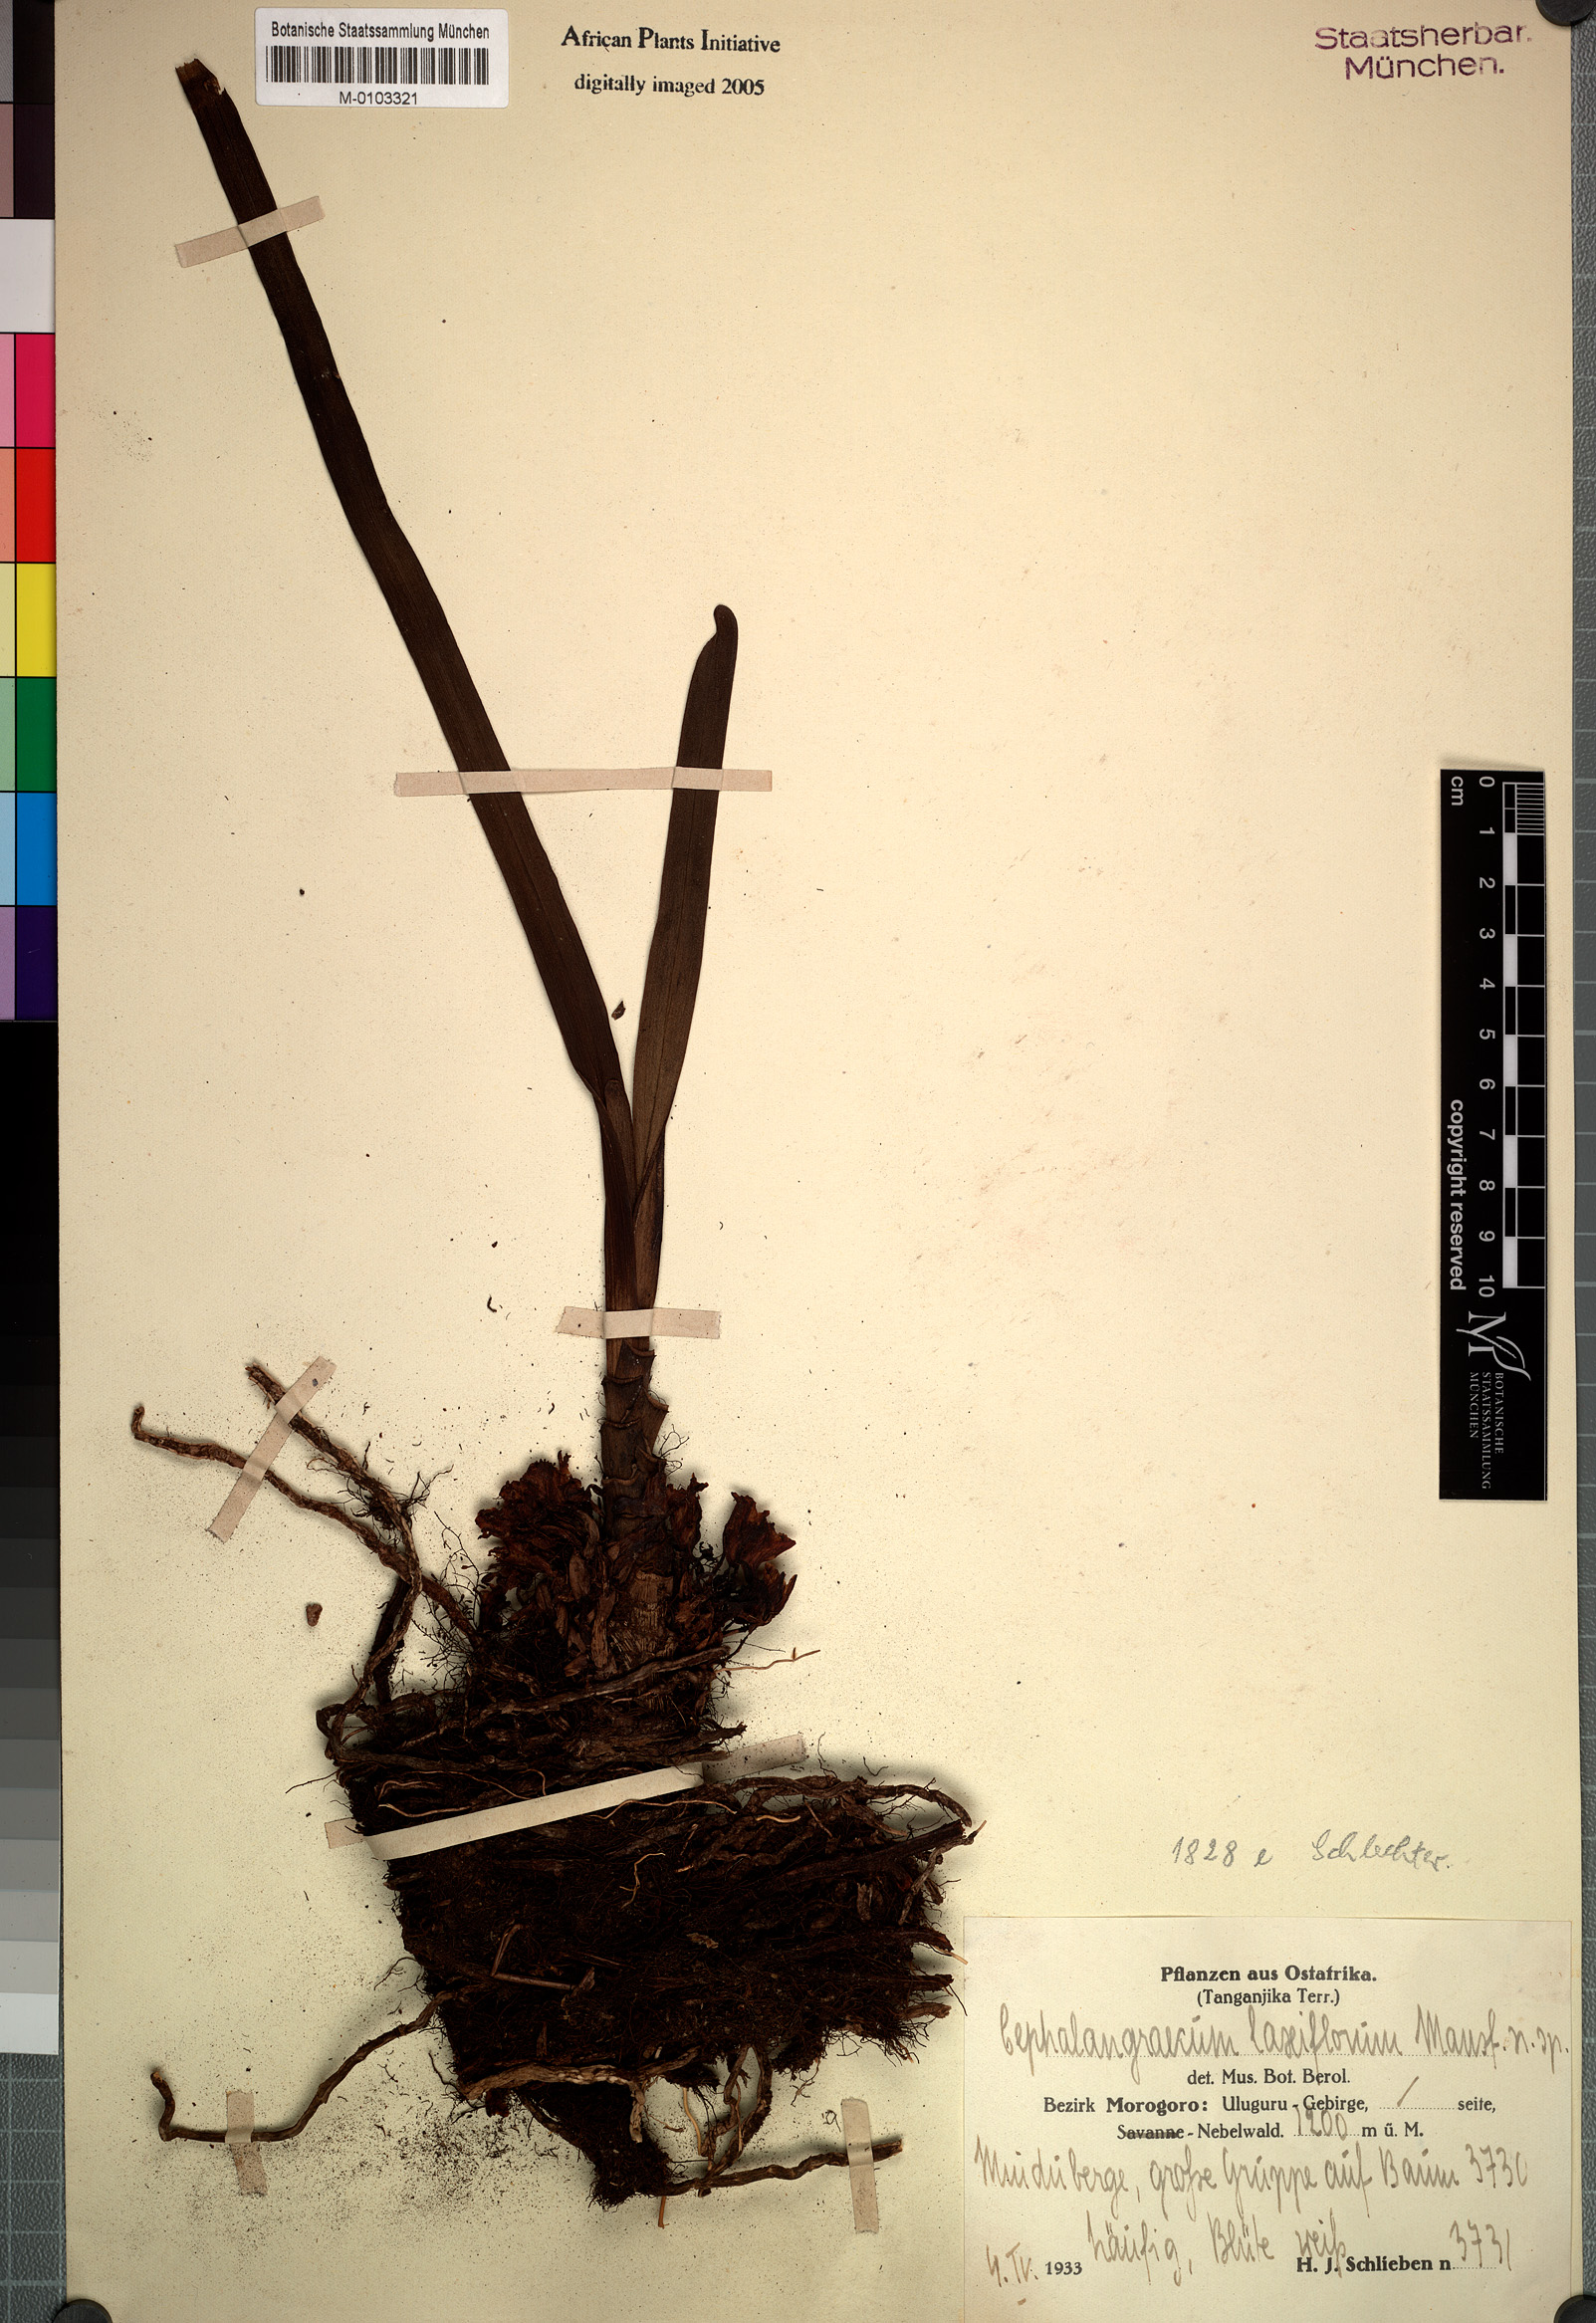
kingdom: Plantae
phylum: Tracheophyta
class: Liliopsida
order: Asparagales
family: Orchidaceae
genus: Ancistrorhynchus
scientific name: Ancistrorhynchus laxiflorus
